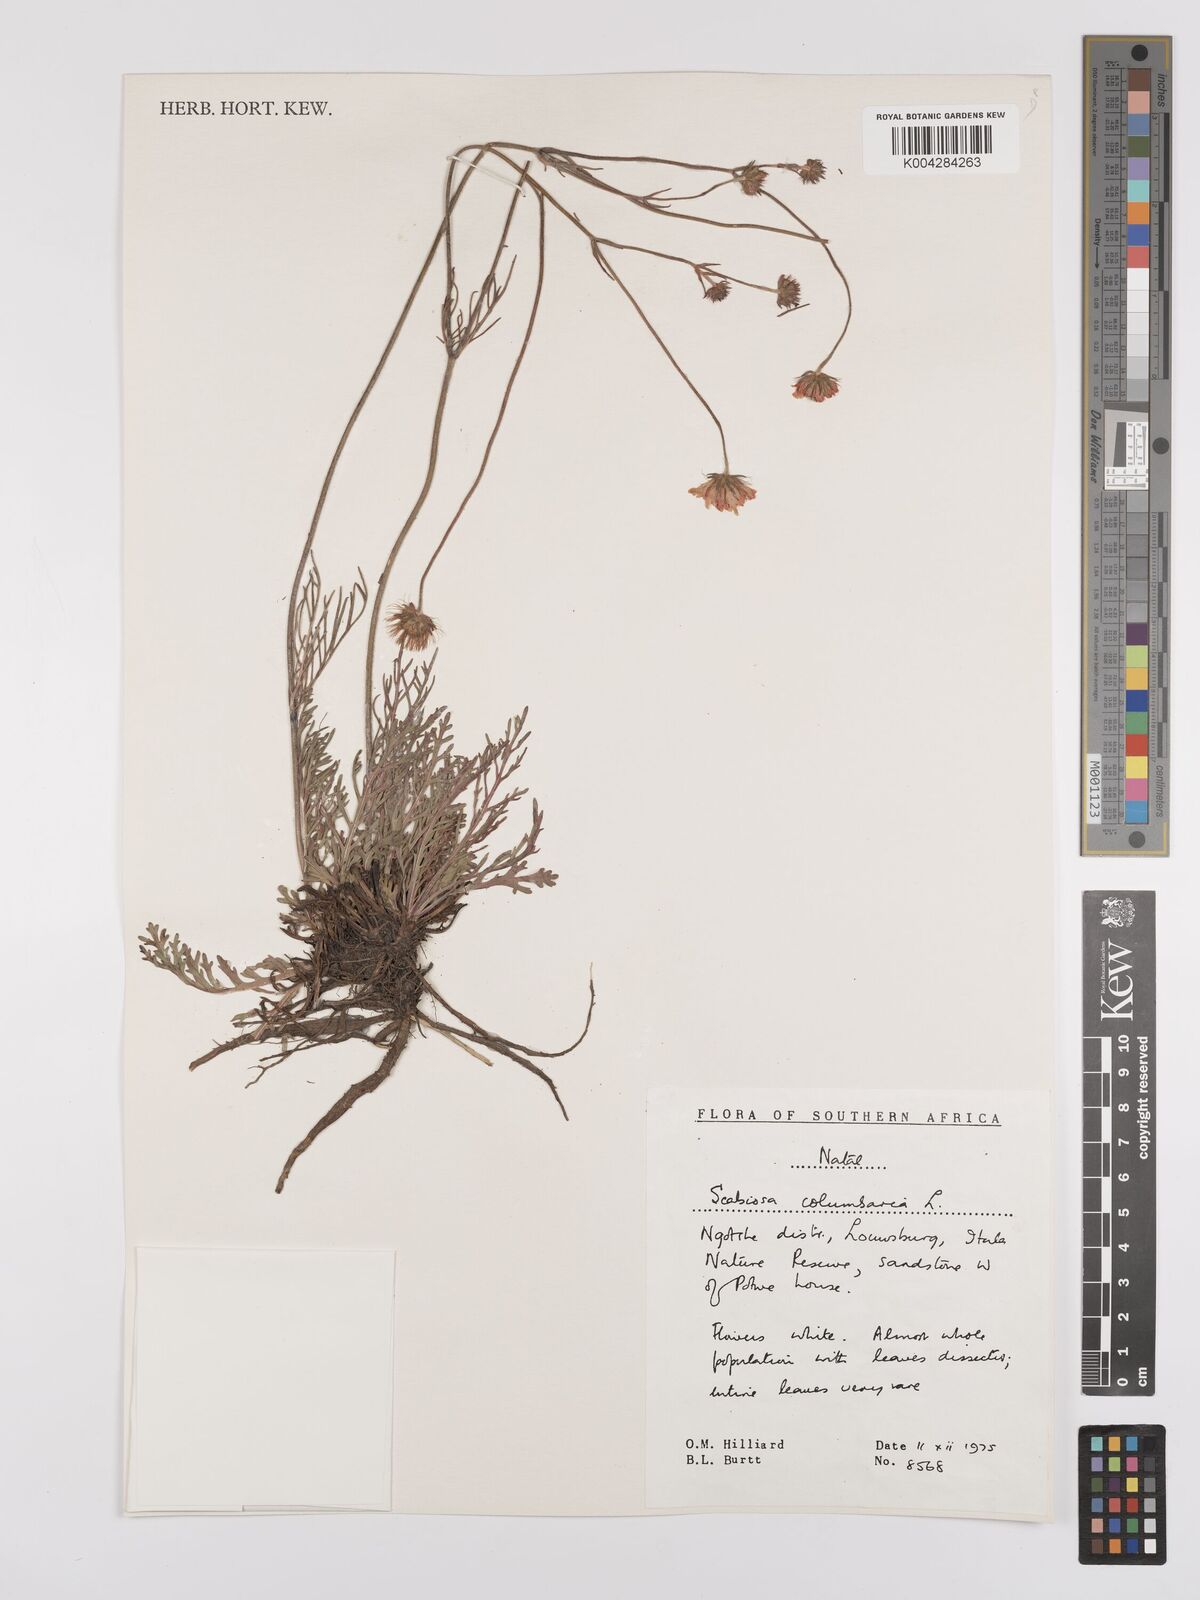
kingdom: Plantae
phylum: Tracheophyta
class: Magnoliopsida
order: Dipsacales
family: Caprifoliaceae
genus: Scabiosa
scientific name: Scabiosa columbaria
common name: Small scabious
